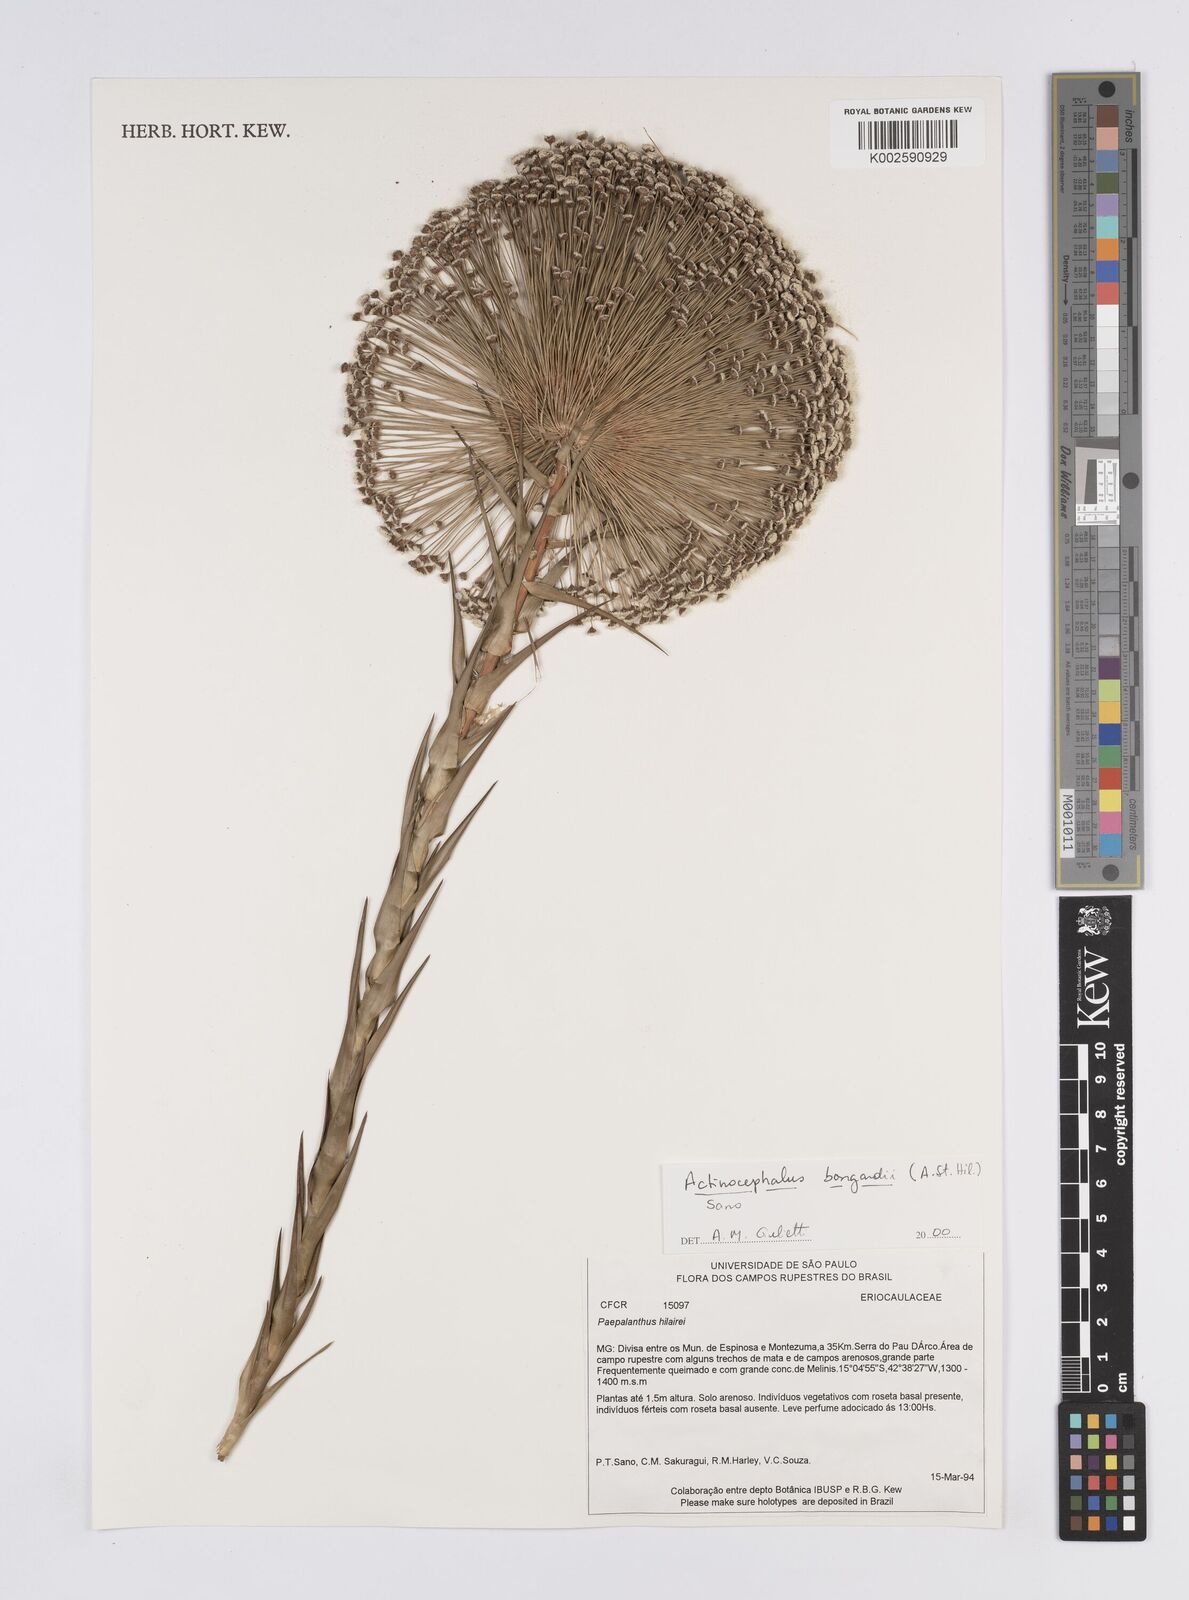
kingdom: Plantae
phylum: Tracheophyta
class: Liliopsida
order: Poales
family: Eriocaulaceae
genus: Paepalanthus
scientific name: Paepalanthus hilairei
